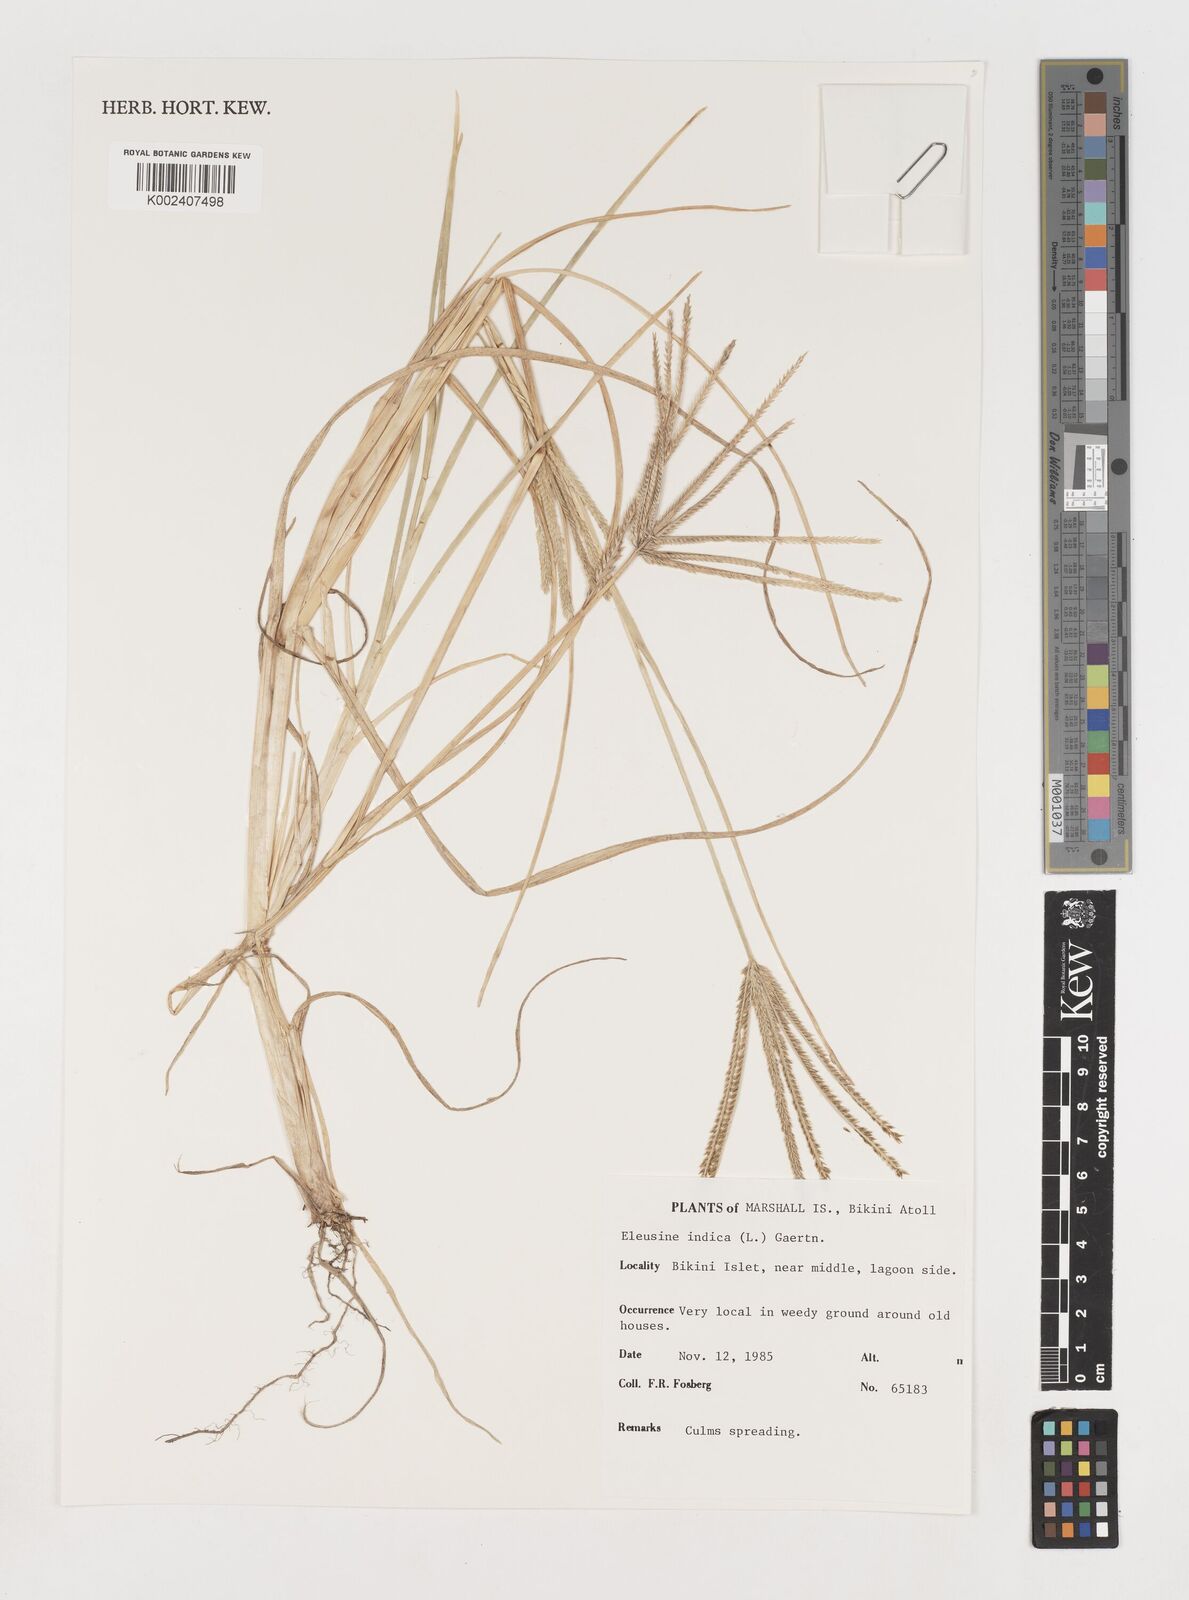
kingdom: Plantae
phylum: Tracheophyta
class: Liliopsida
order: Poales
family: Poaceae
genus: Eleusine
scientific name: Eleusine indica
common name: Yard-grass
